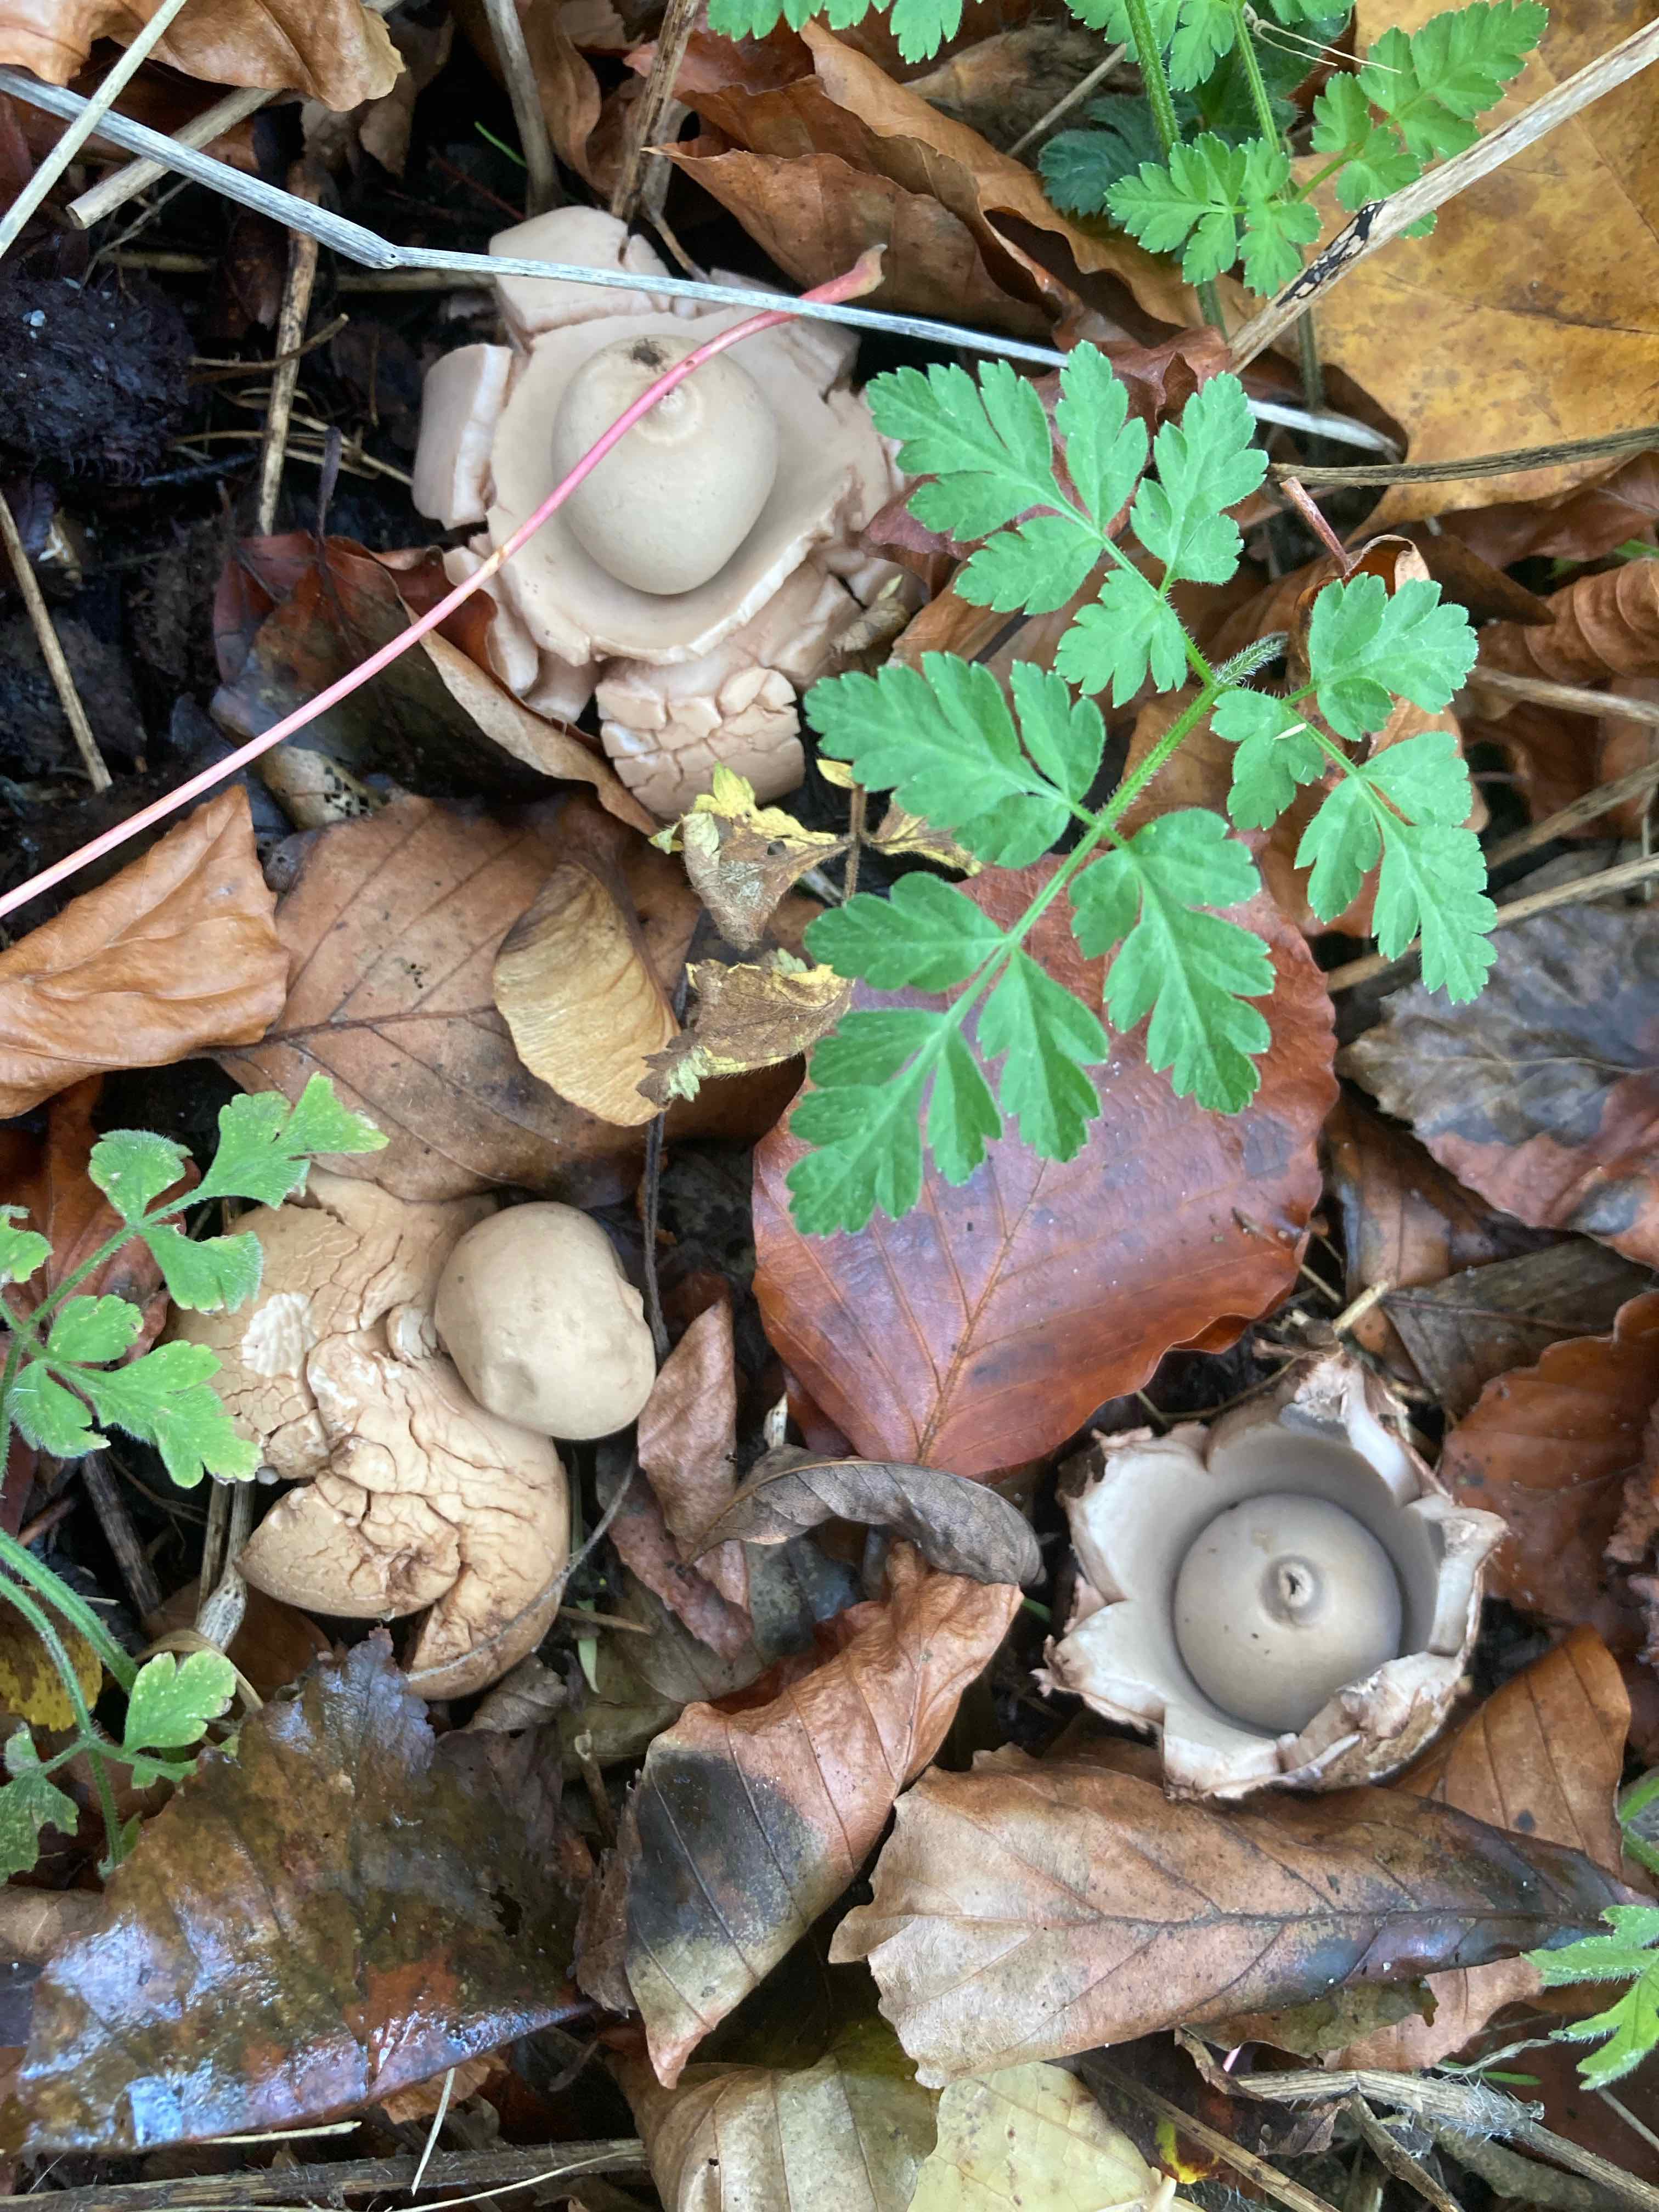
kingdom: Fungi
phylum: Basidiomycota
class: Agaricomycetes
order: Geastrales
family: Geastraceae
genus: Geastrum
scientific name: Geastrum michelianum
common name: kødet stjernebold
